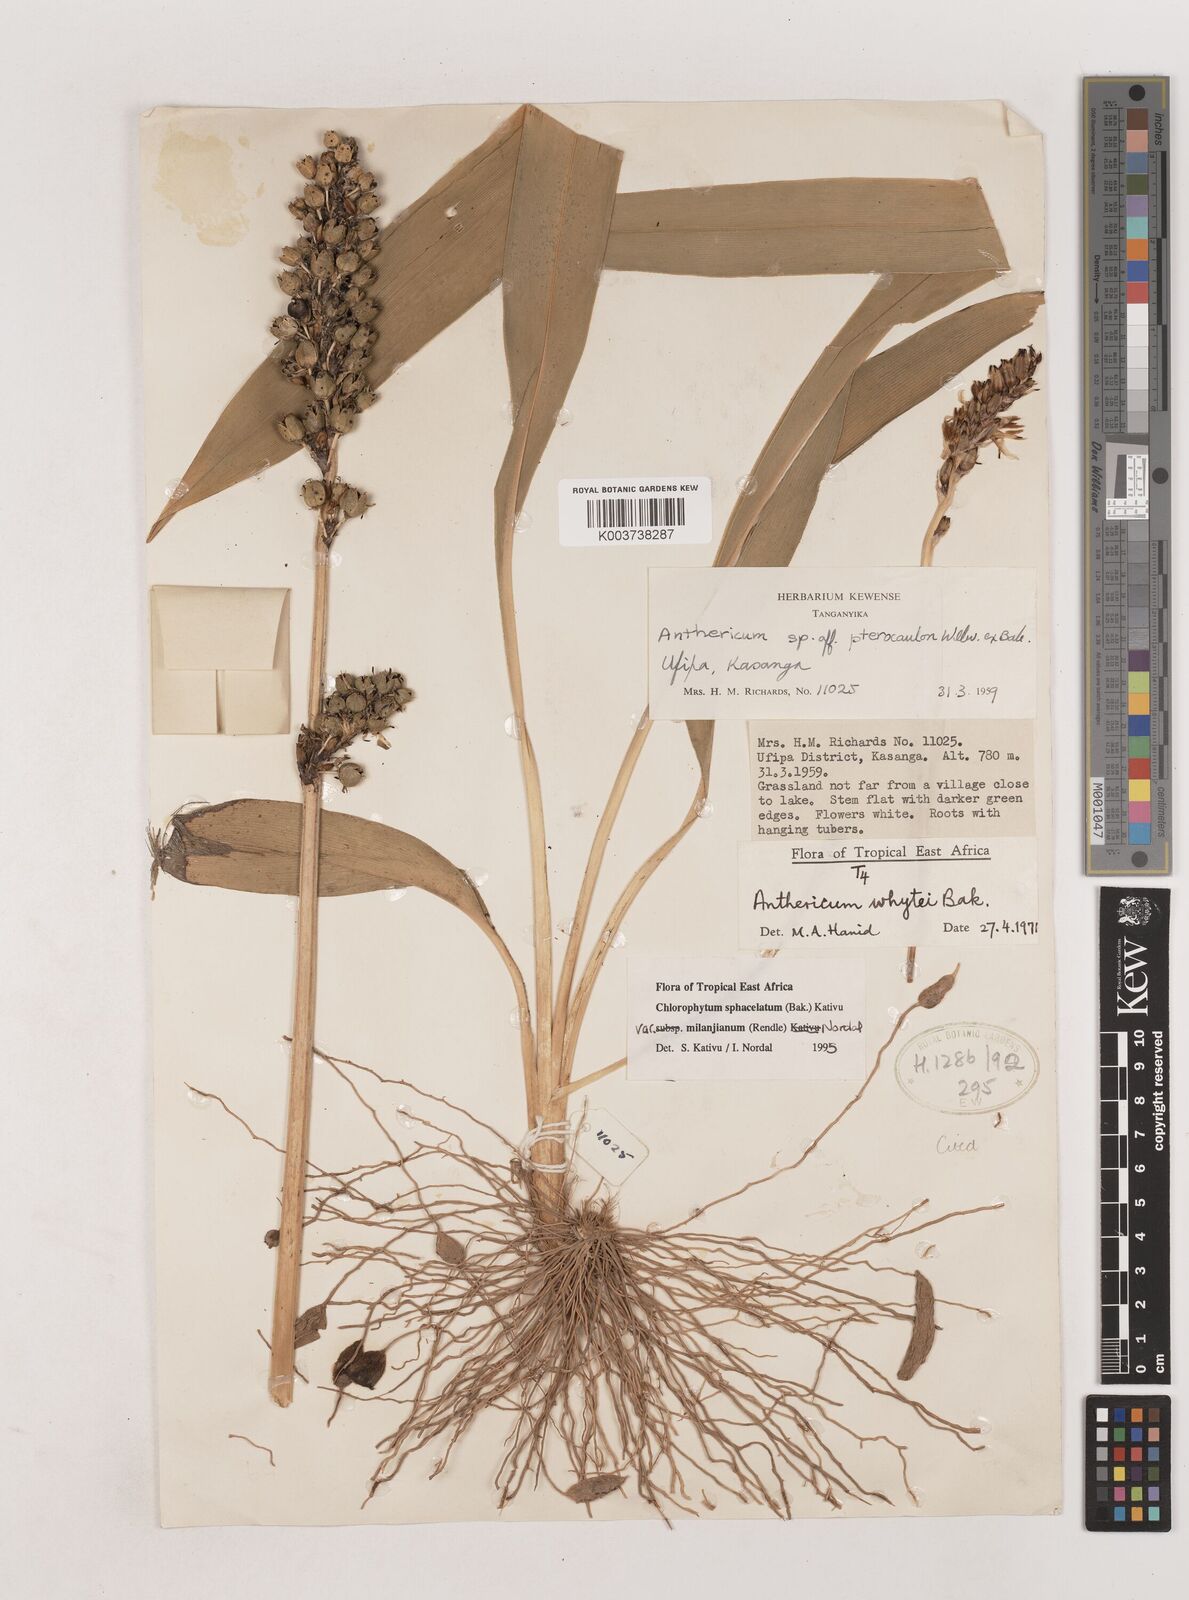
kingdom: Plantae
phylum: Tracheophyta
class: Liliopsida
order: Asparagales
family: Asparagaceae
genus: Chlorophytum
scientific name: Chlorophytum sphacelatum
